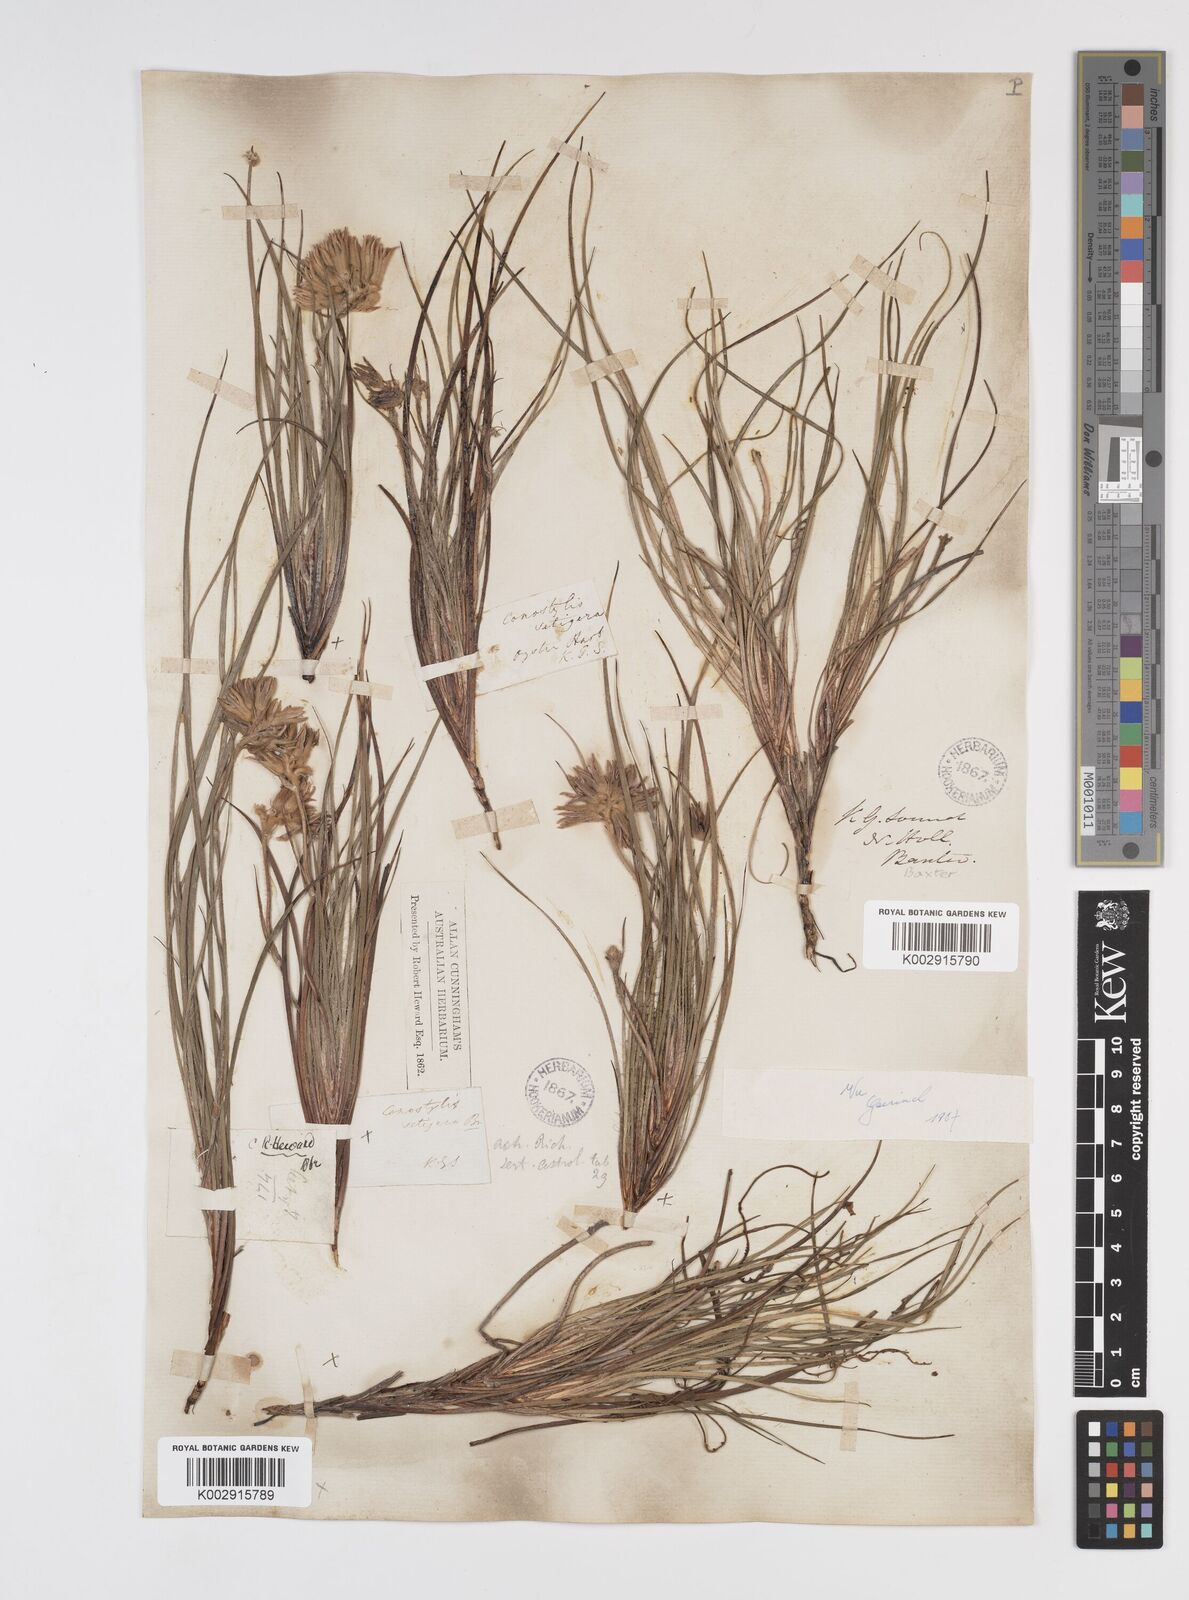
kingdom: Plantae
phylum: Tracheophyta
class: Liliopsida
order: Commelinales
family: Haemodoraceae
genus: Conostylis
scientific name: Conostylis setigera
